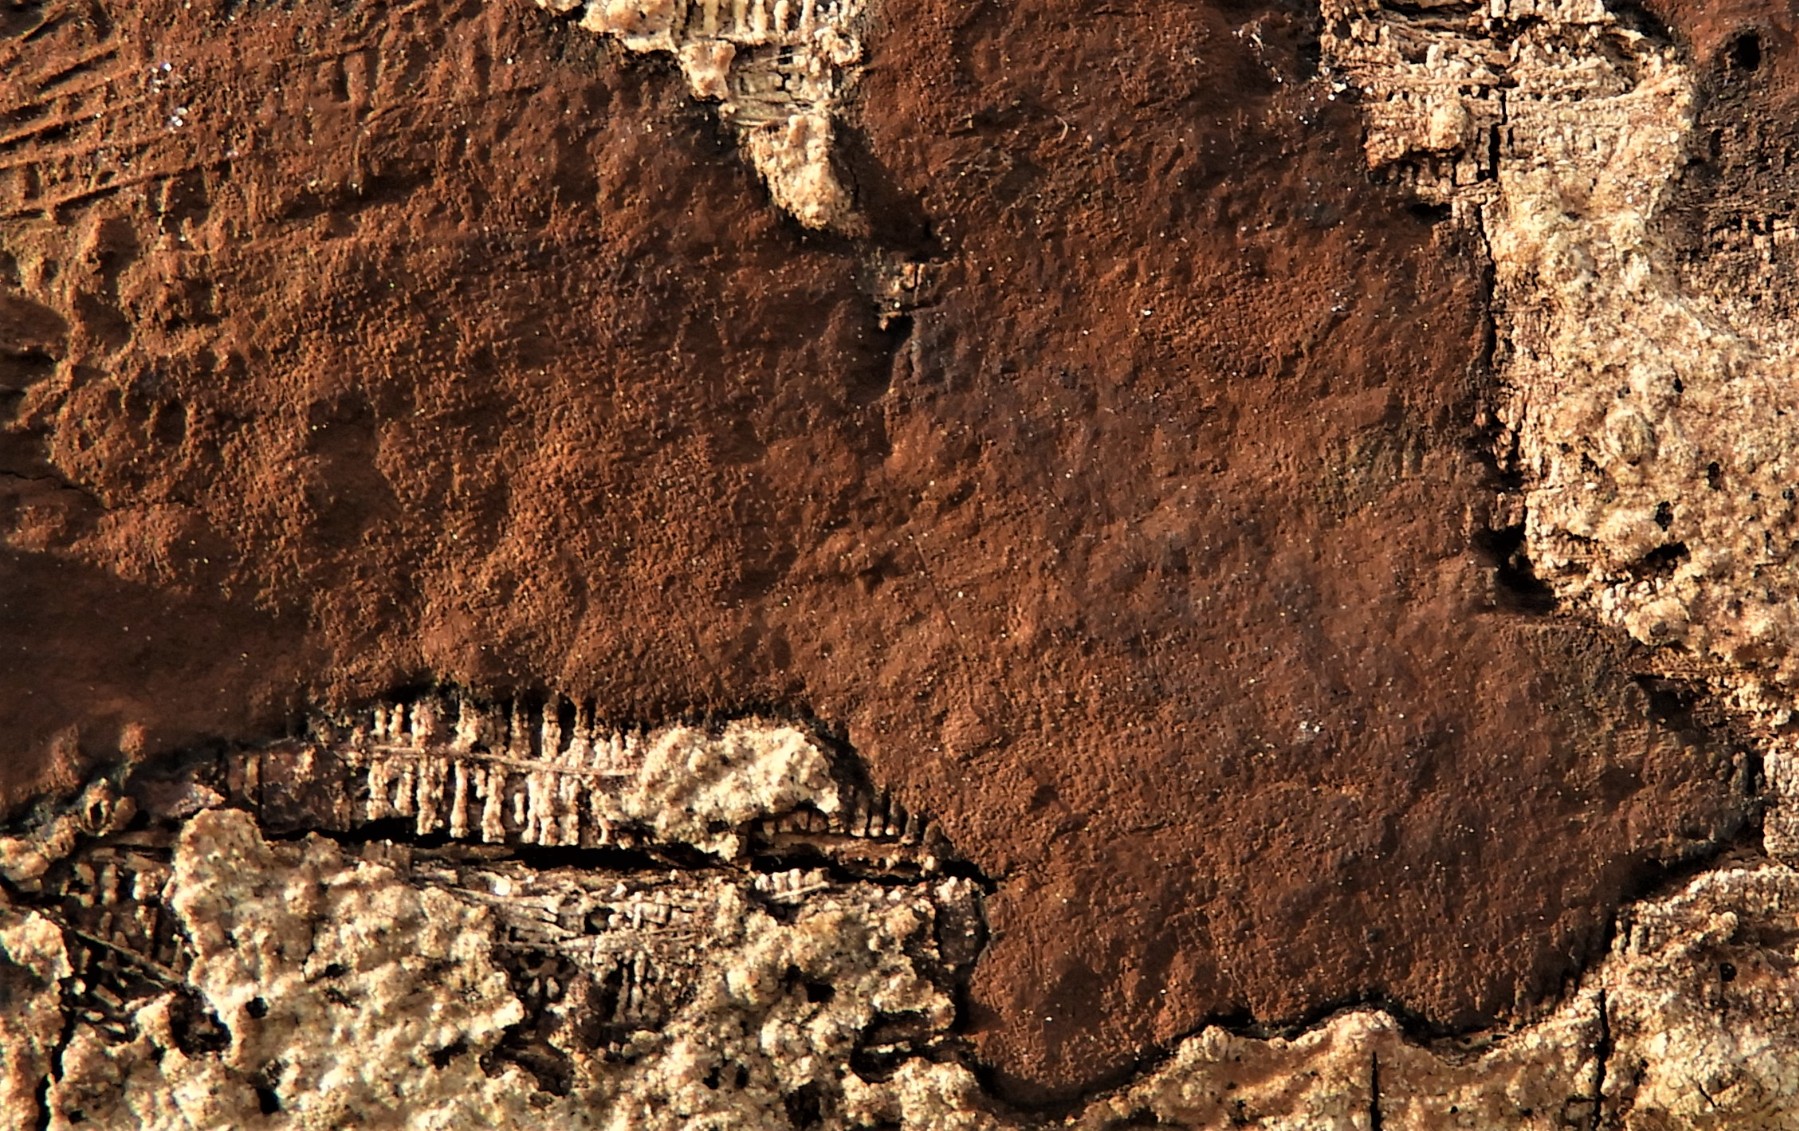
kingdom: Fungi
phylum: Ascomycota
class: Sordariomycetes
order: Xylariales
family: Hypoxylaceae
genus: Hypoxylon
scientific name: Hypoxylon petriniae
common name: nedsænket kulbær
